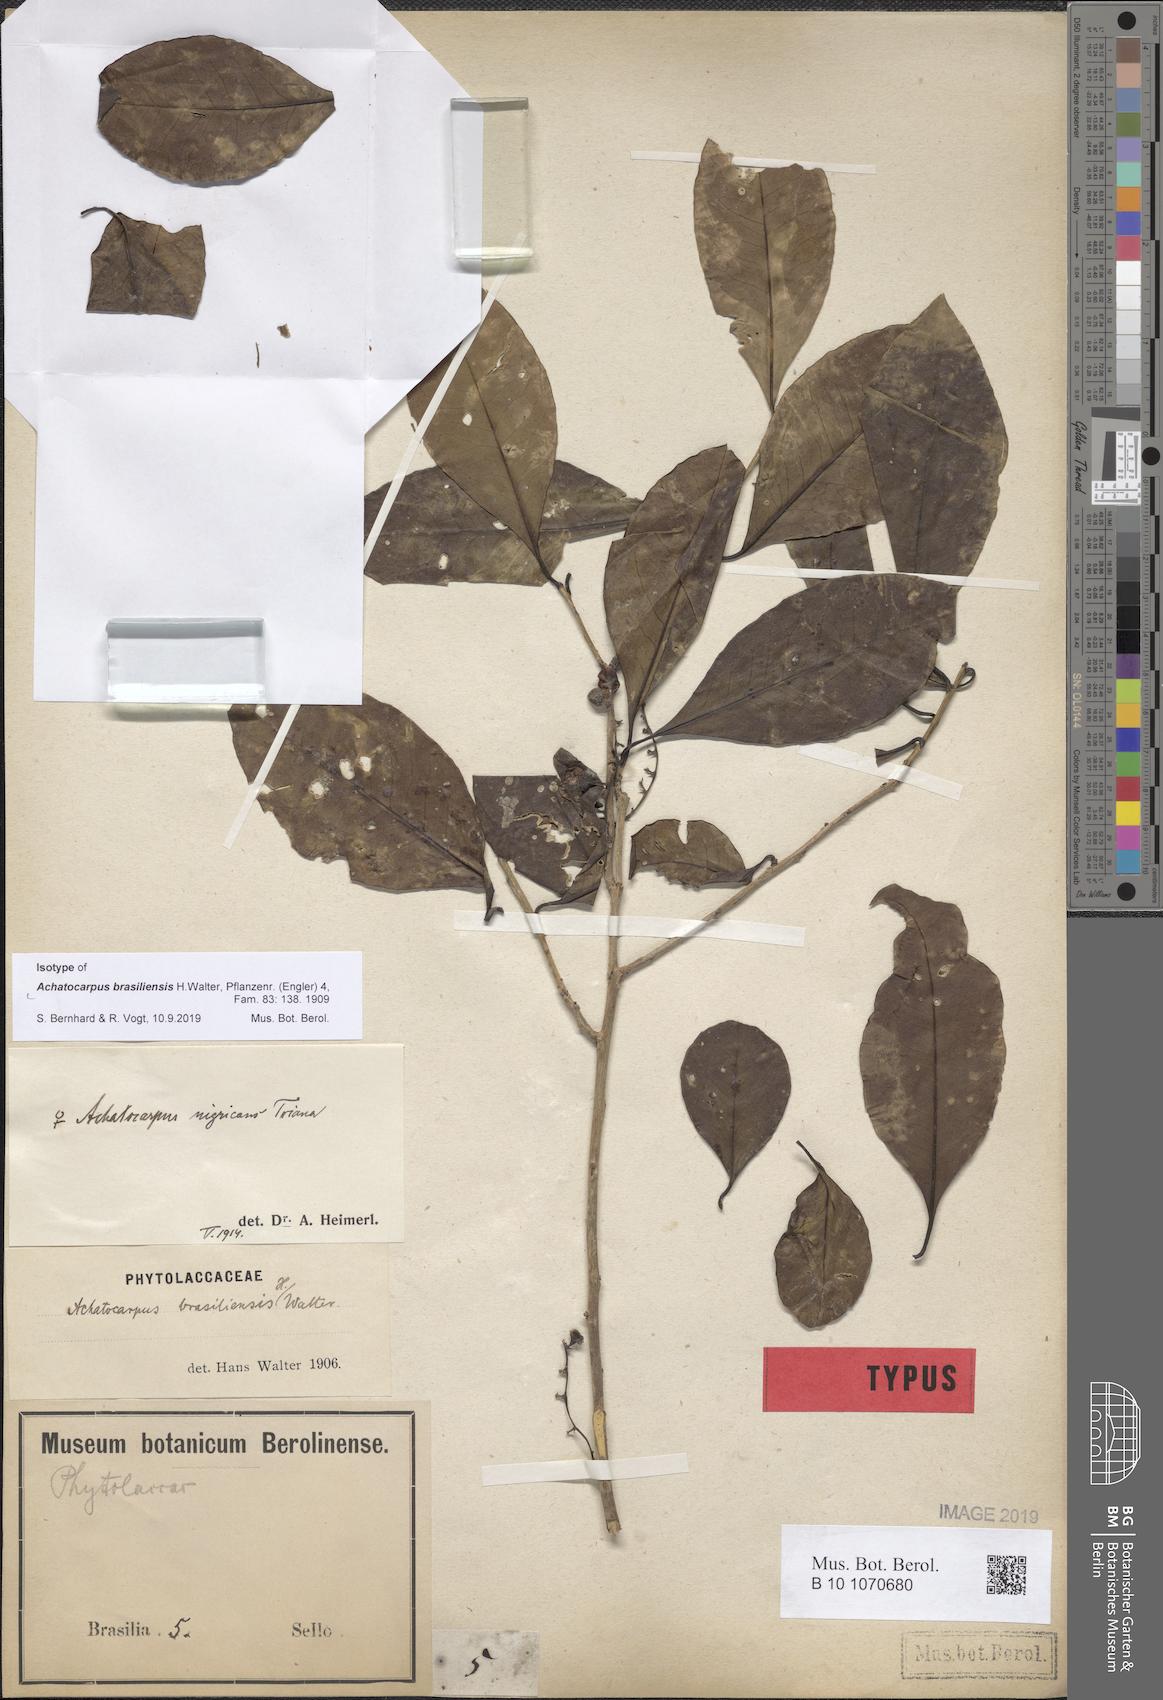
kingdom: Plantae
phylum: Tracheophyta
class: Magnoliopsida
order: Caryophyllales
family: Achatocarpaceae
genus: Achatocarpus
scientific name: Achatocarpus praecox
